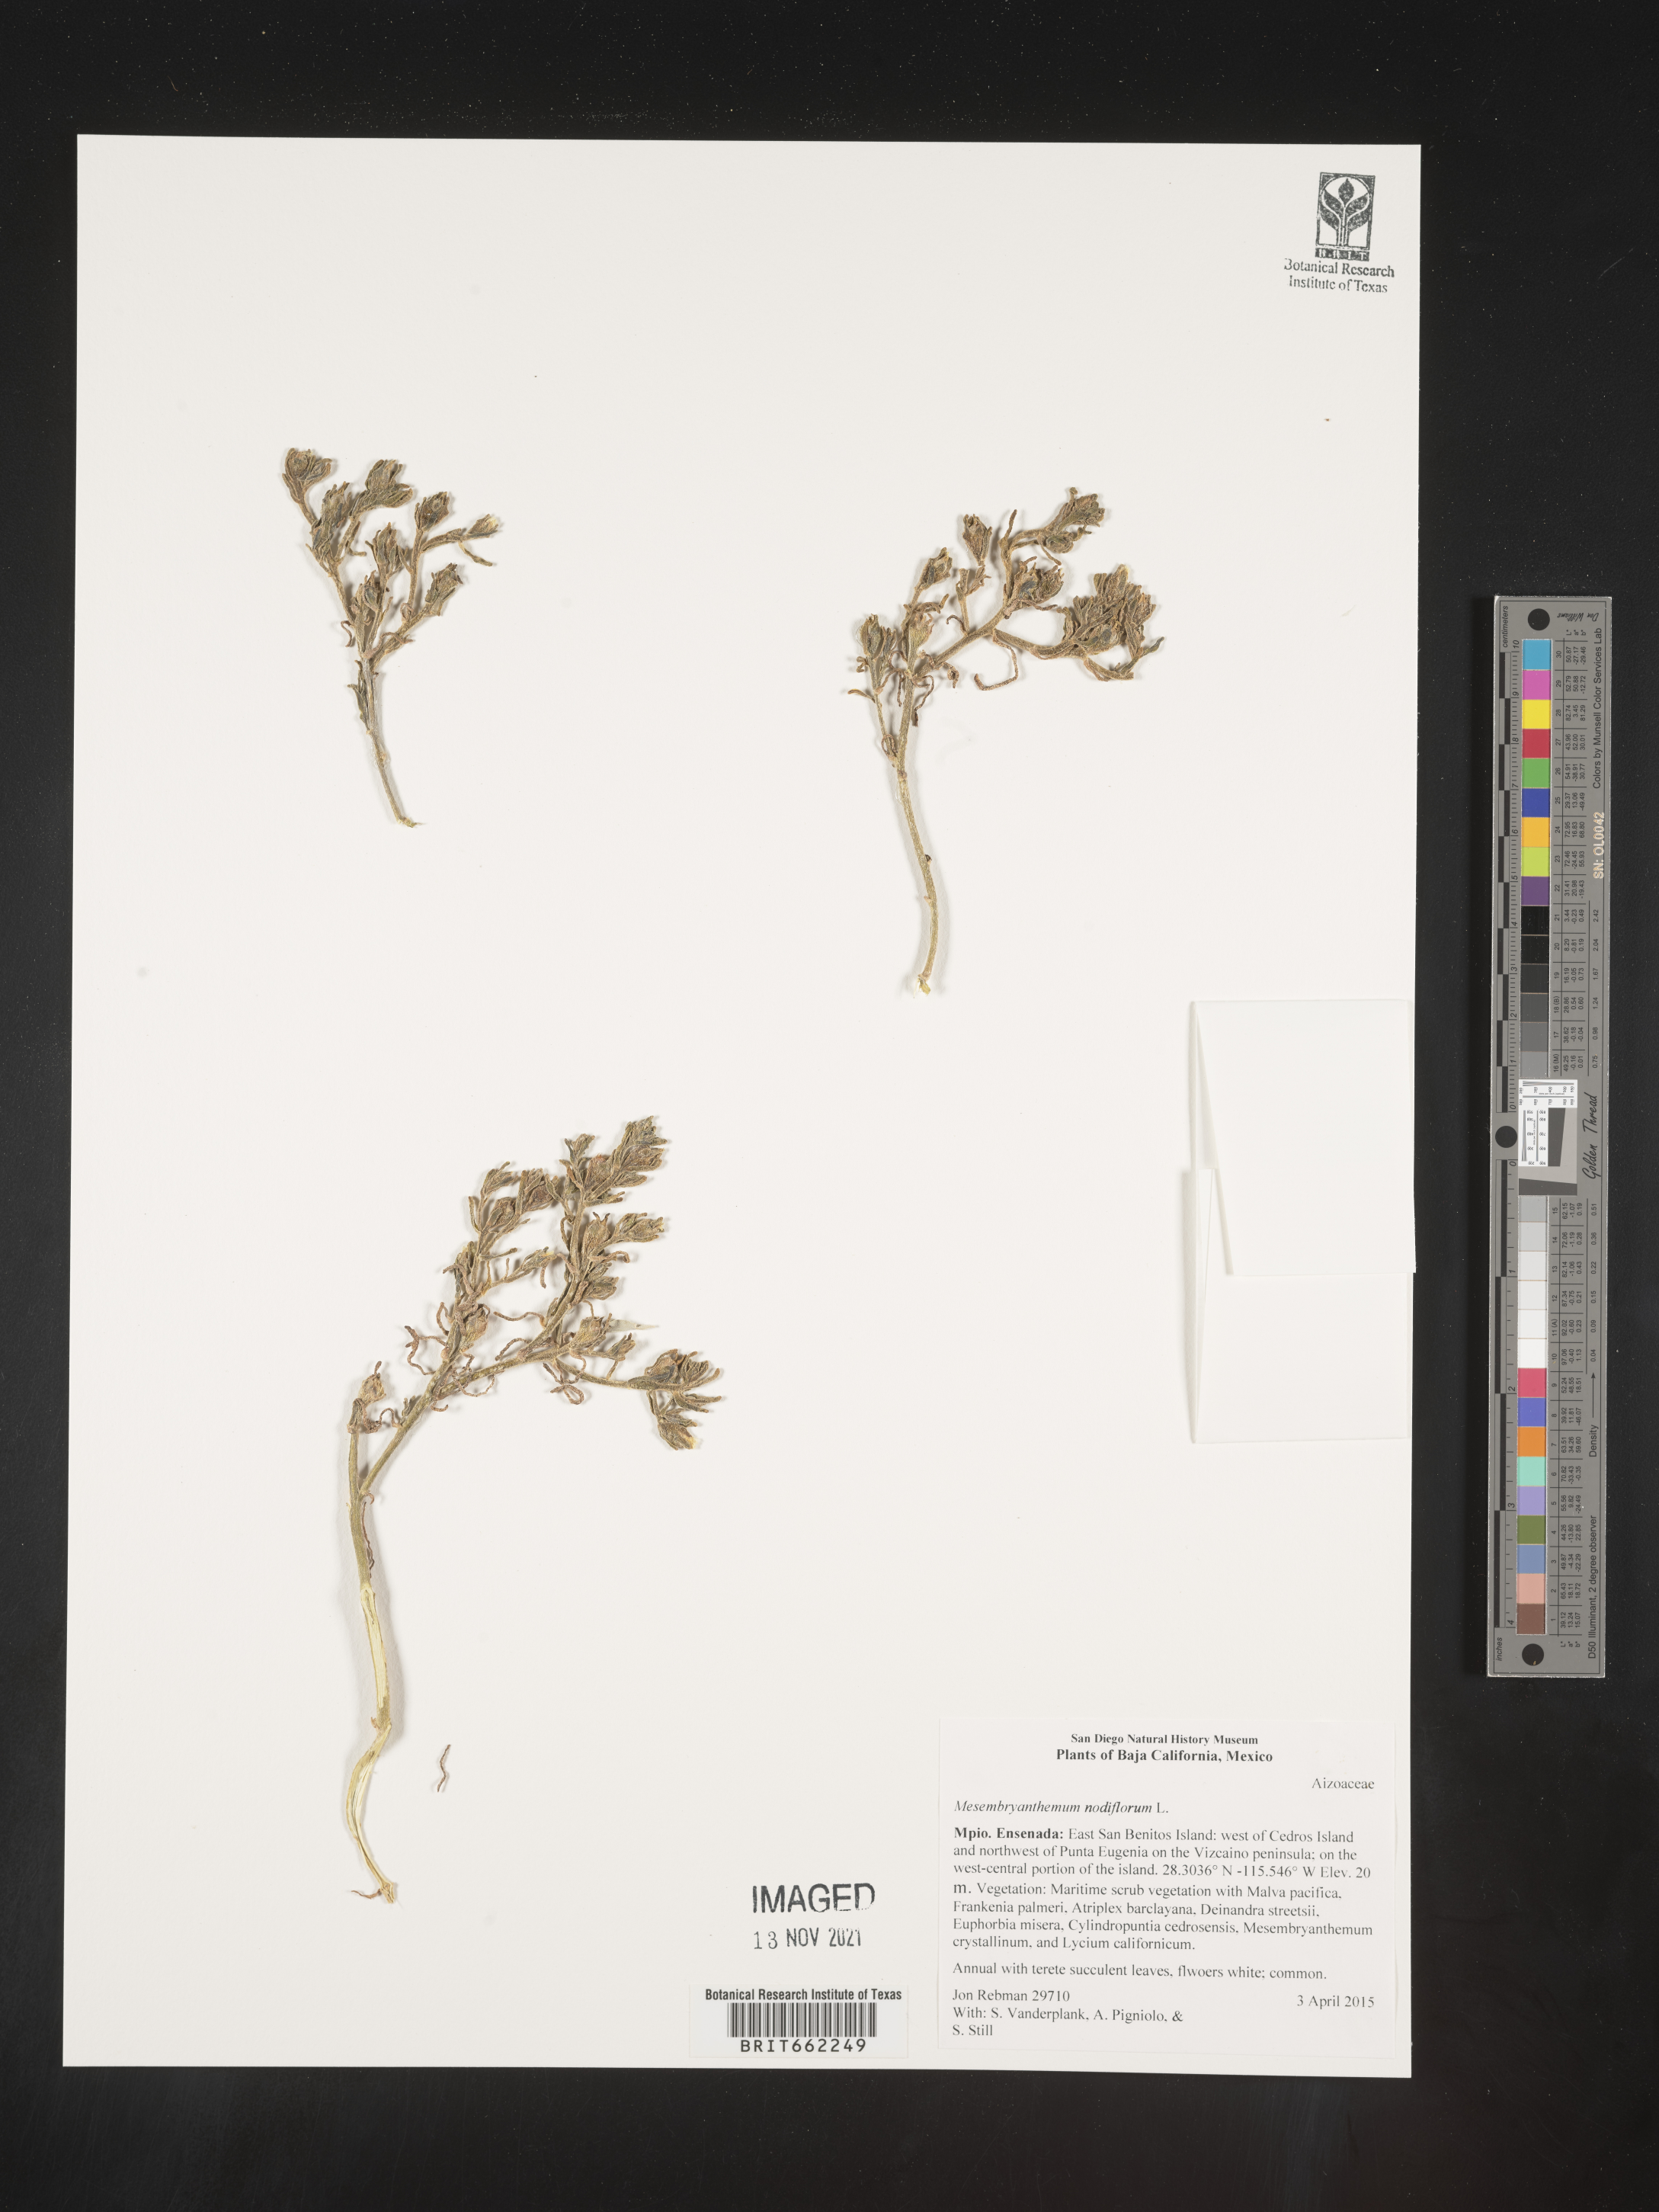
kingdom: Plantae
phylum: Tracheophyta
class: Magnoliopsida
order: Caryophyllales
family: Aizoaceae
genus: Mesembryanthemum
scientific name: Mesembryanthemum
